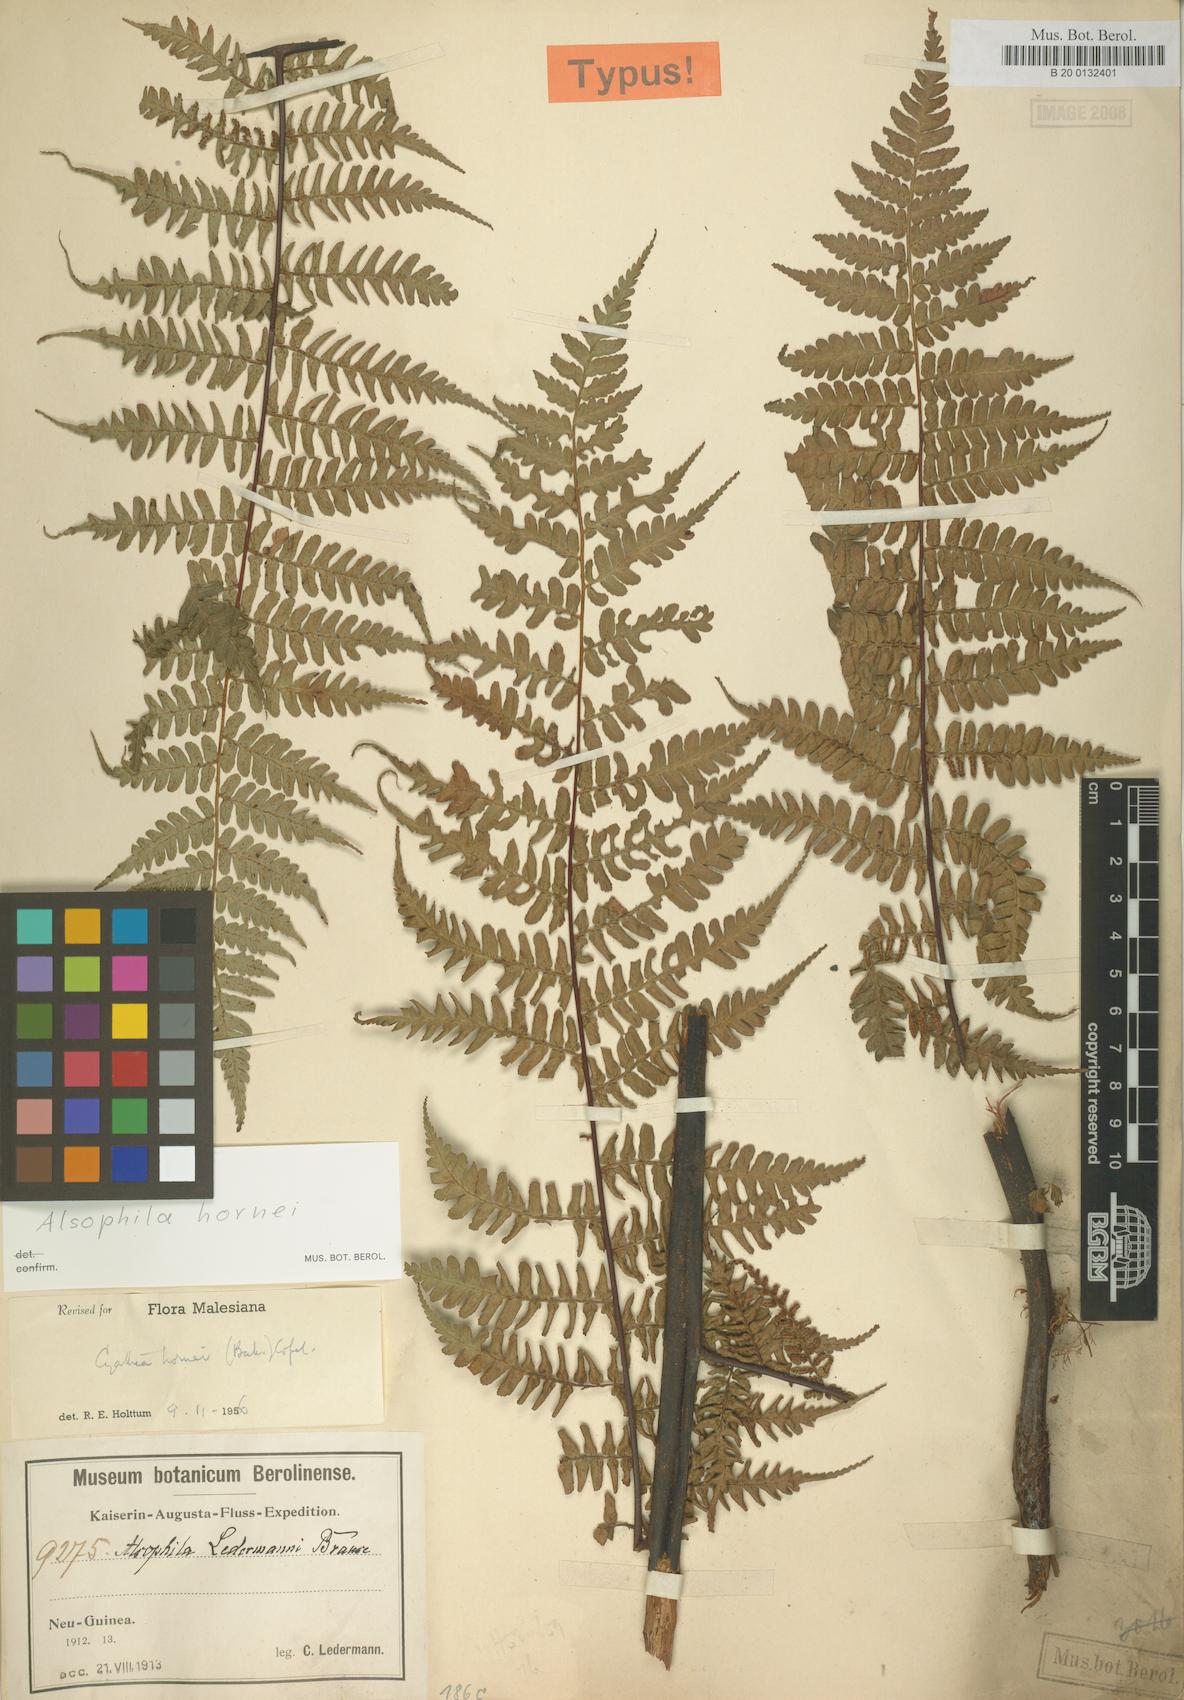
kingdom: Plantae
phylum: Tracheophyta
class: Polypodiopsida
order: Cyatheales
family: Cyatheaceae
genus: Gymnosphaera
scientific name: Gymnosphaera hornei
